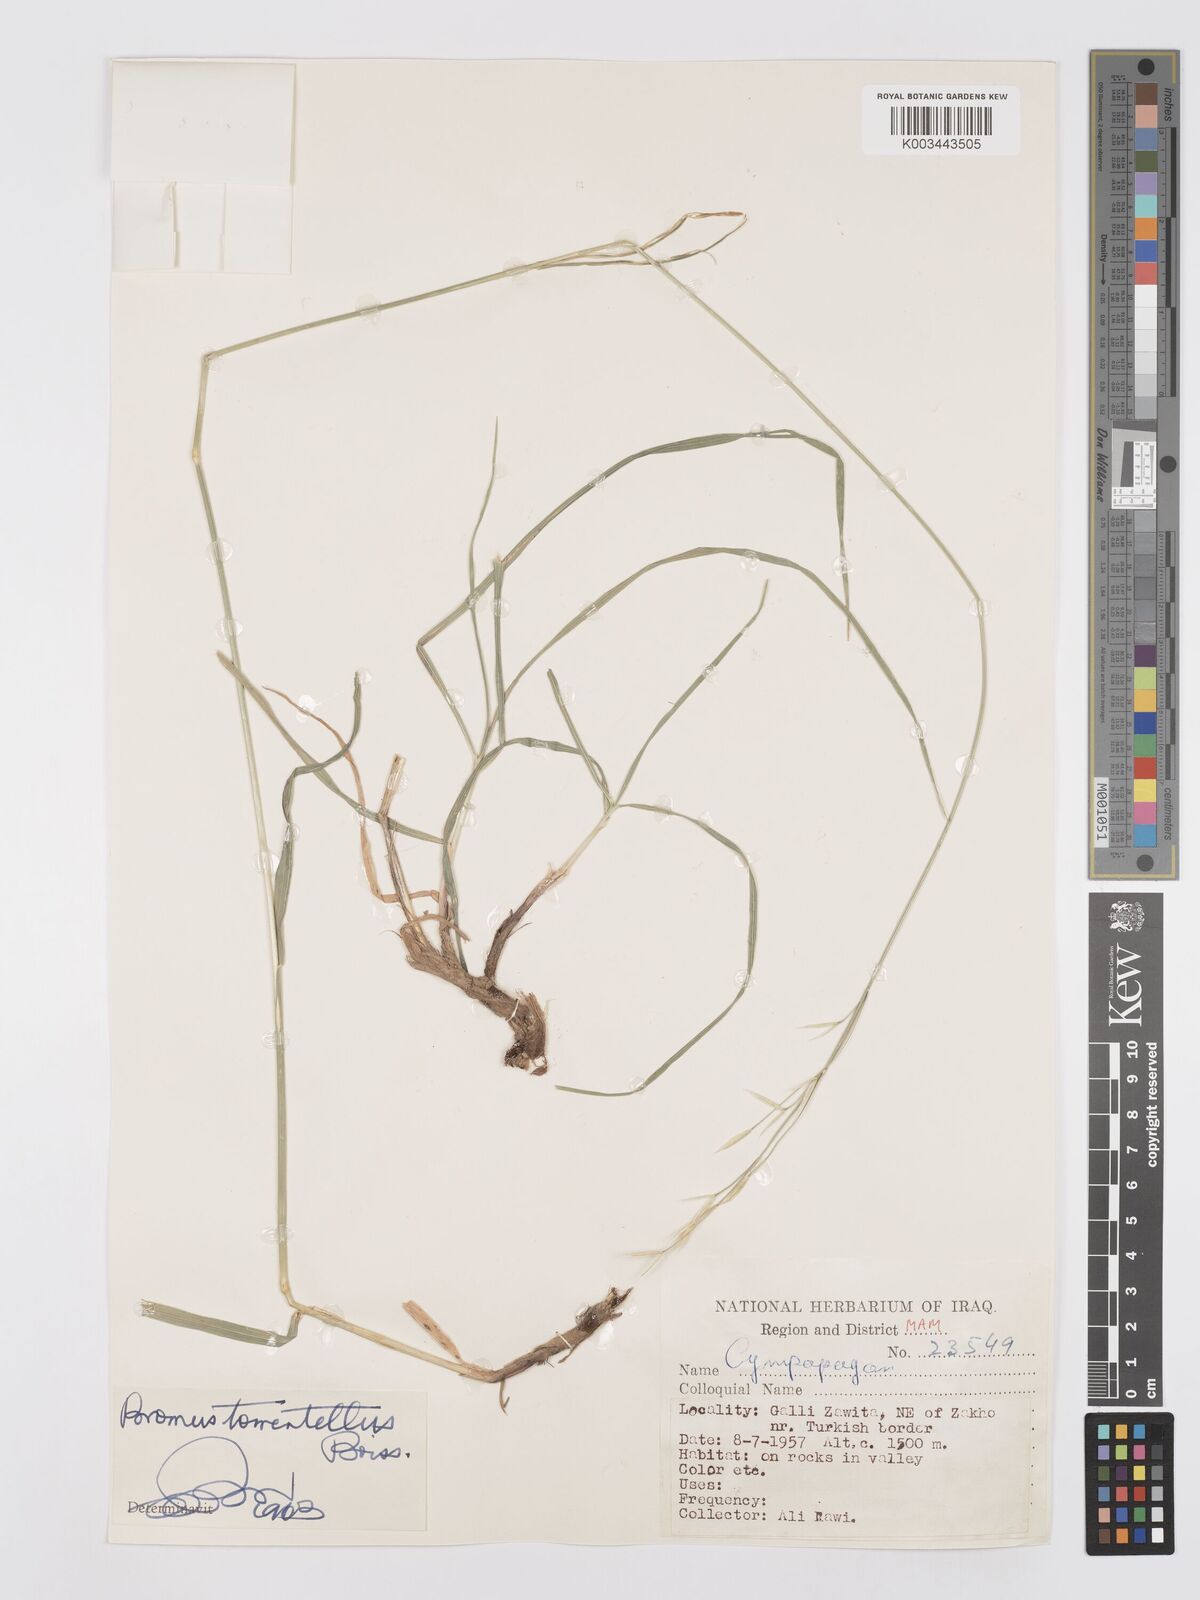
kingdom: Plantae
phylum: Tracheophyta
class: Liliopsida
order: Poales
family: Poaceae
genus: Bromus
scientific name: Bromus tomentellus
